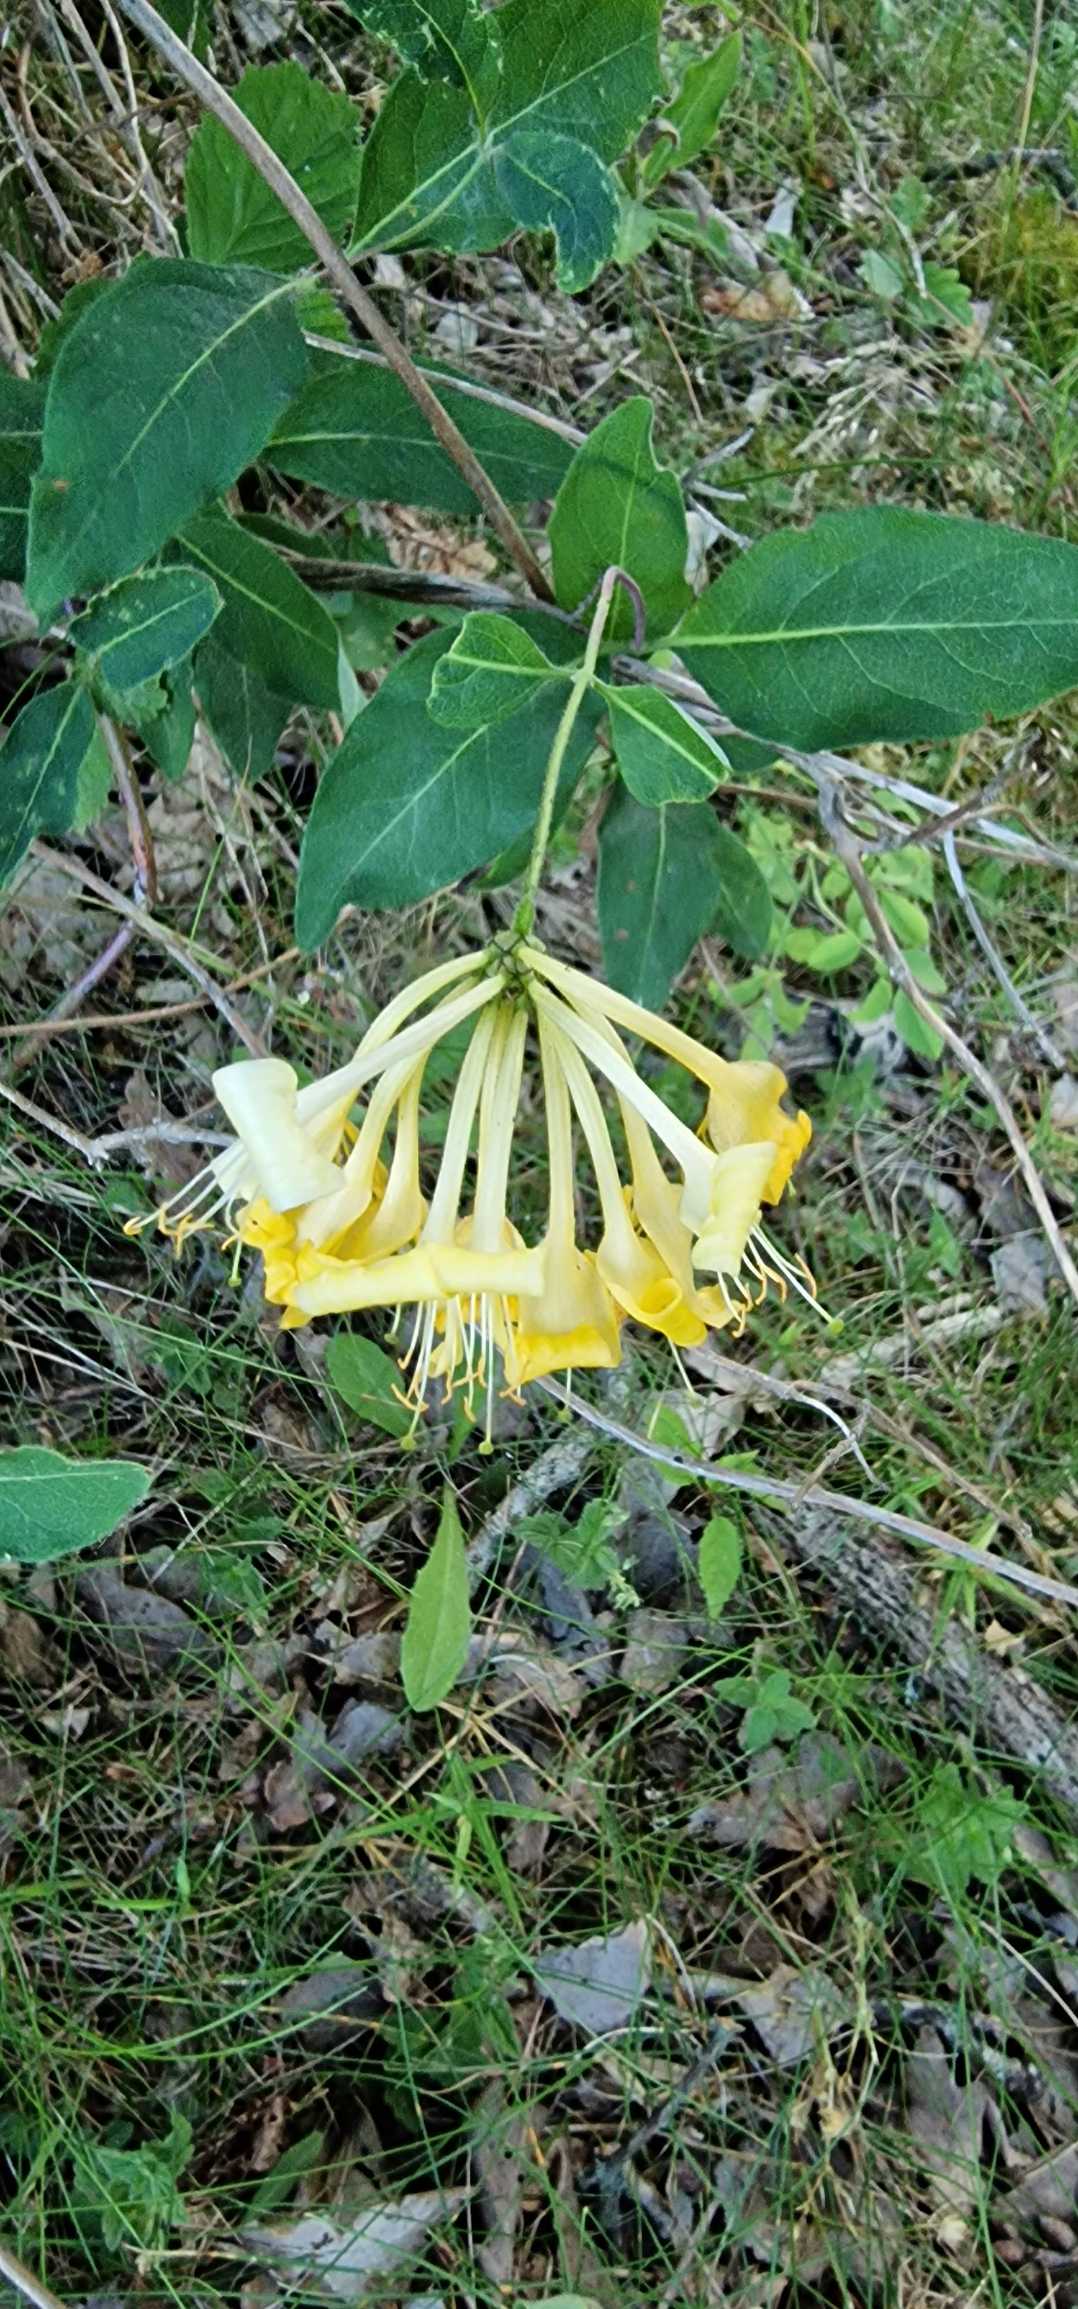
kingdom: Plantae
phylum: Tracheophyta
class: Magnoliopsida
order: Dipsacales
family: Caprifoliaceae
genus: Lonicera
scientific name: Lonicera periclymenum
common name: Almindelig gedeblad
